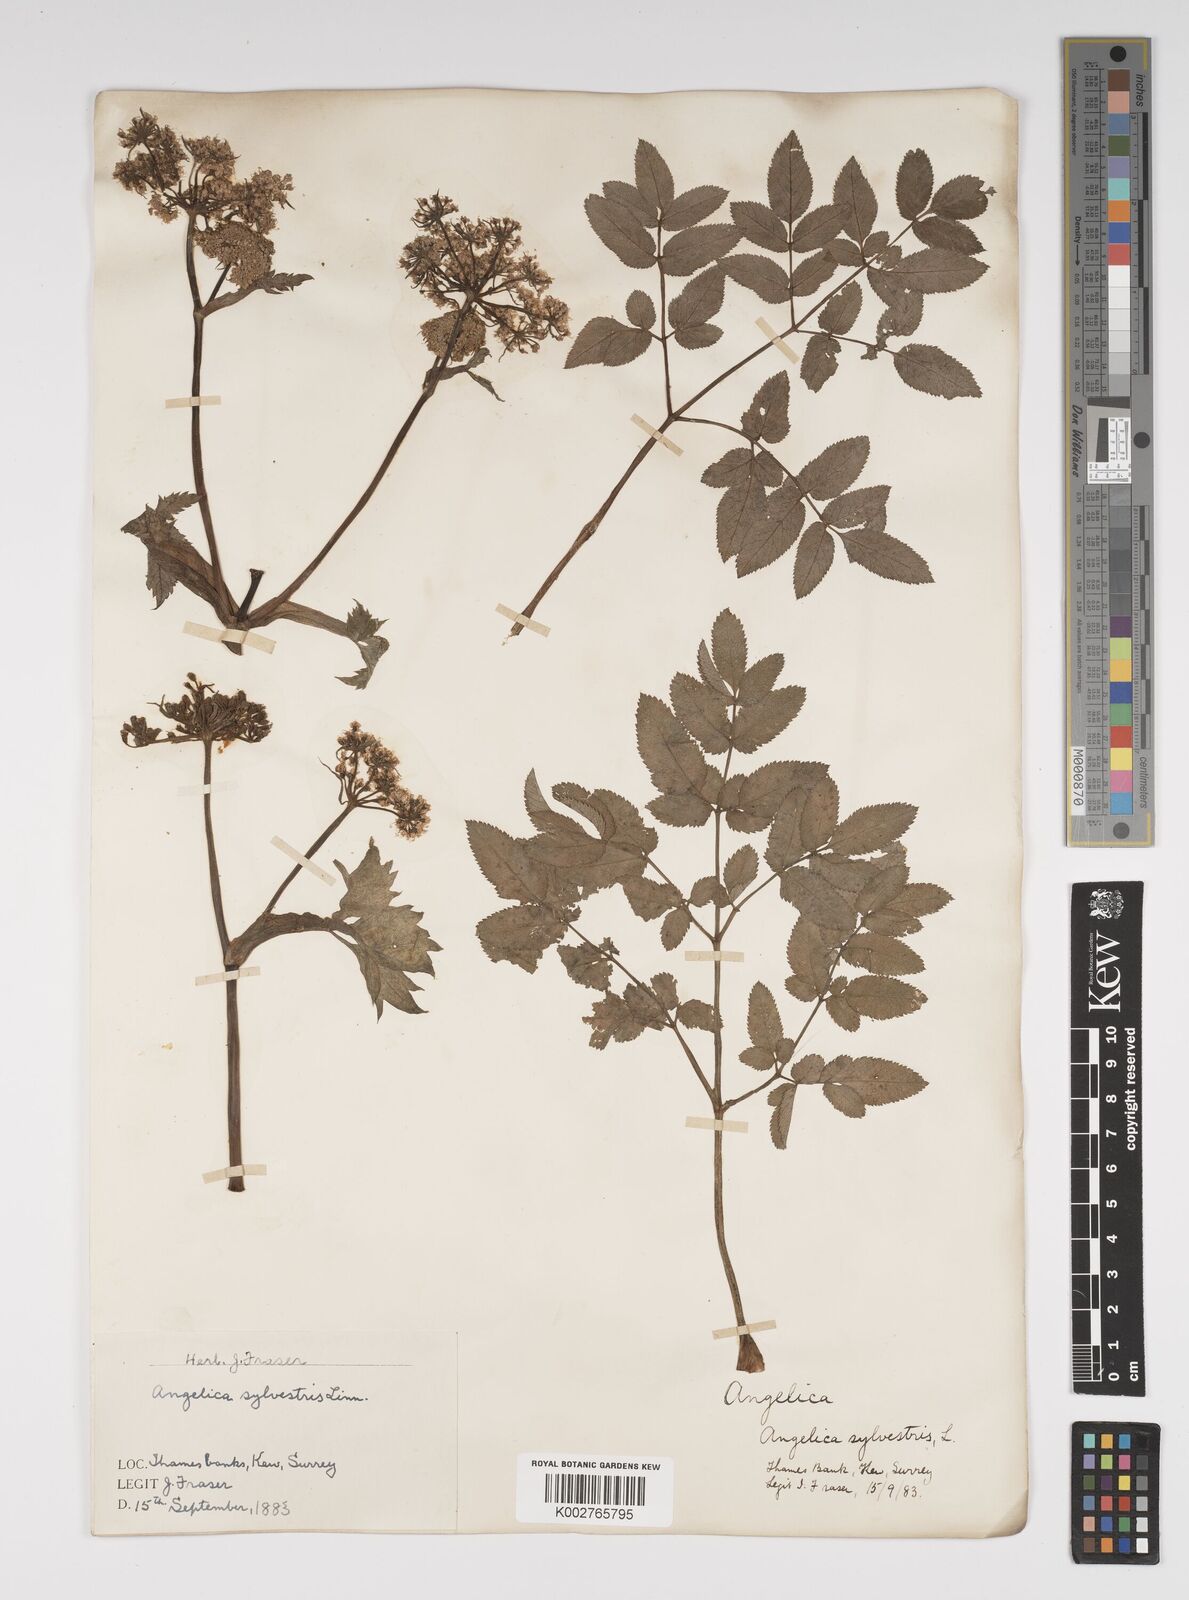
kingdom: Plantae
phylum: Tracheophyta
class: Magnoliopsida
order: Apiales
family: Apiaceae
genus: Angelica
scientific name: Angelica sylvestris
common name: Wild angelica
